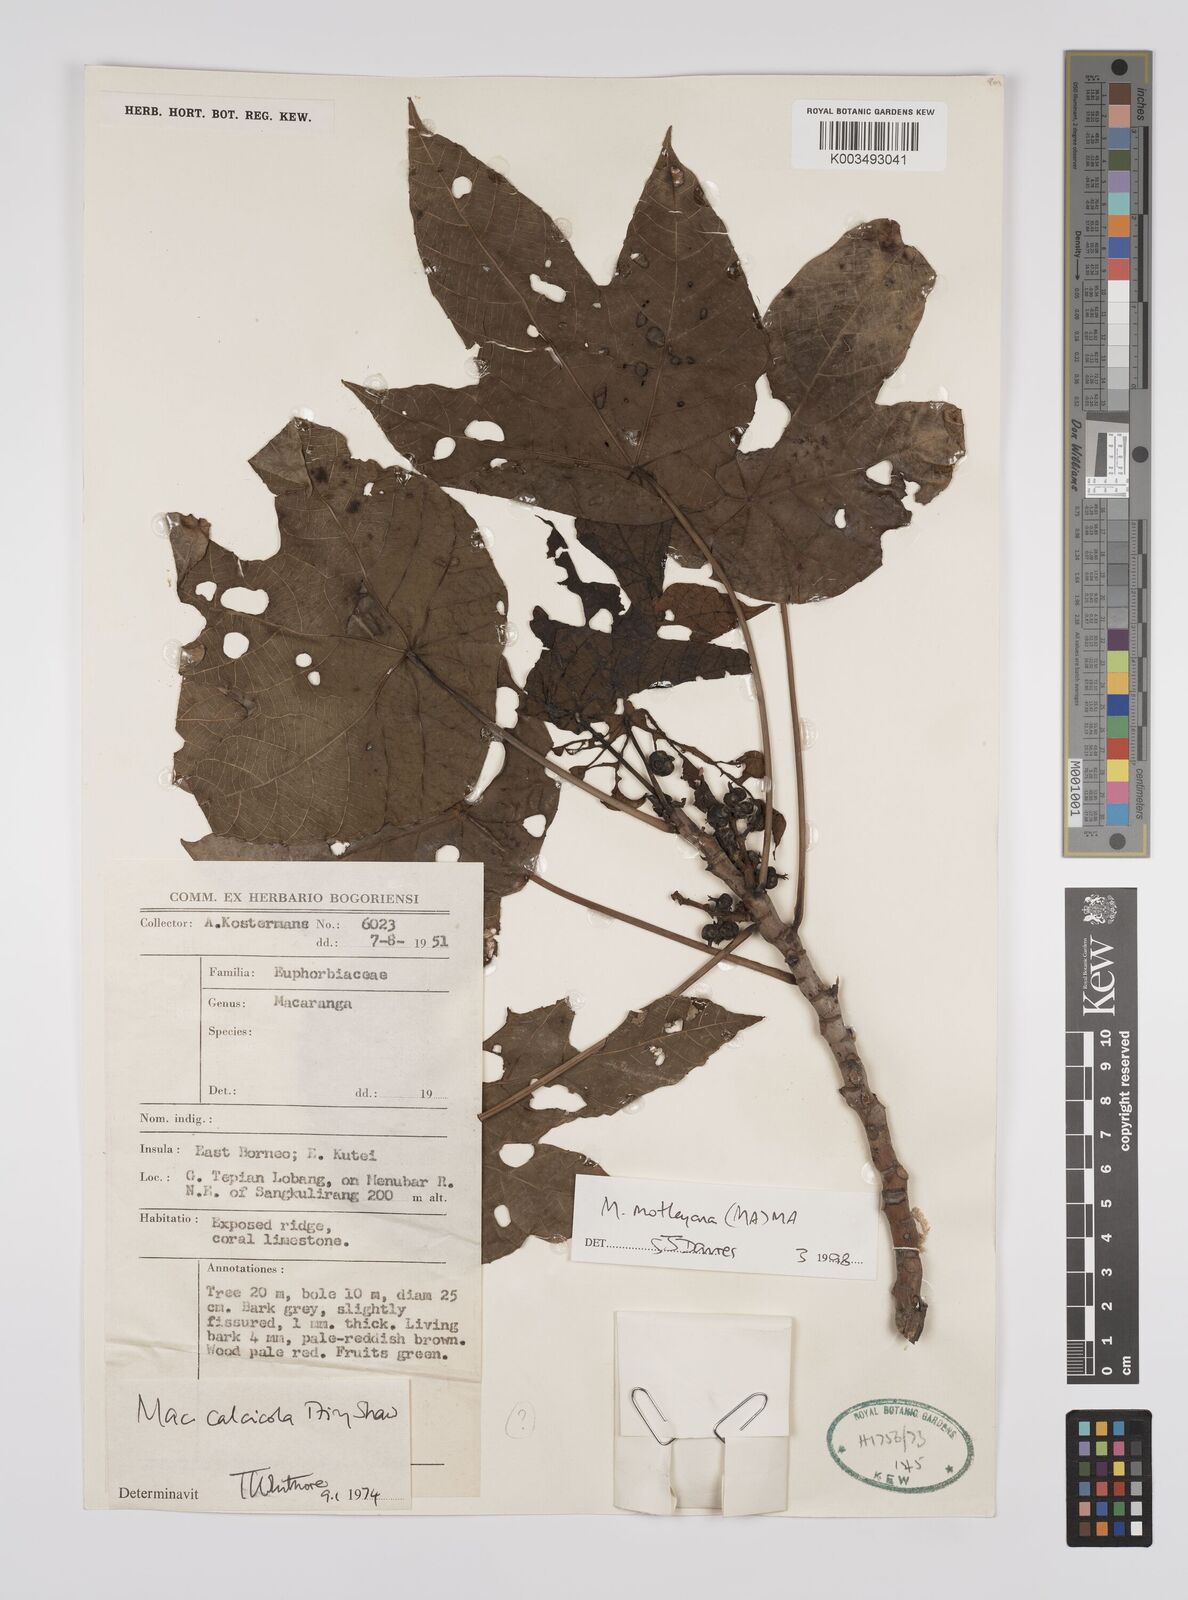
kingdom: Plantae
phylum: Tracheophyta
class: Magnoliopsida
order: Malpighiales
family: Euphorbiaceae
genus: Macaranga
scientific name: Macaranga motleyana
